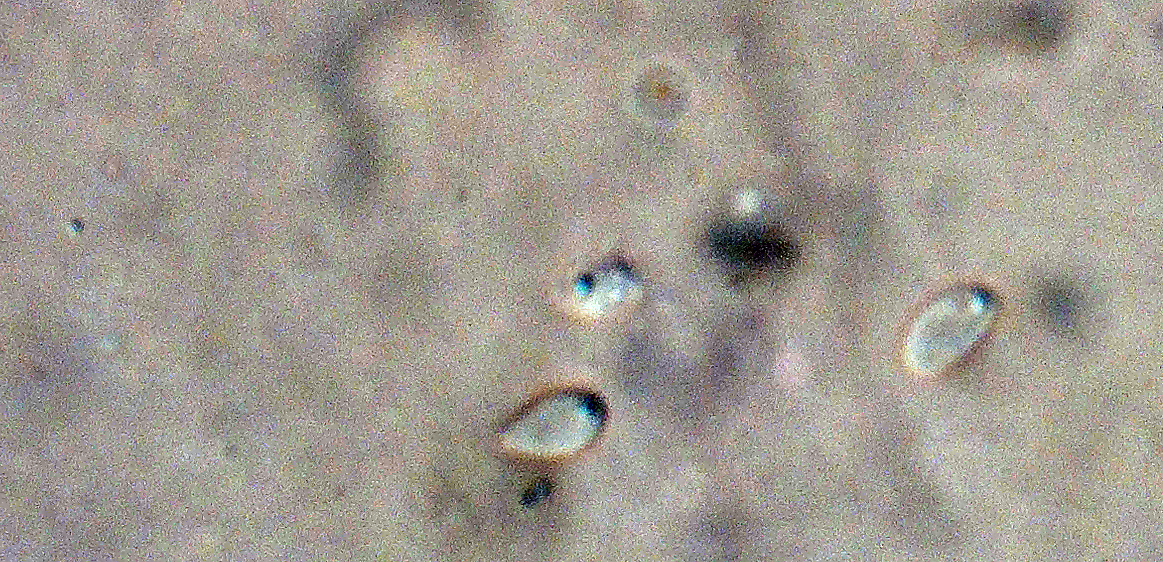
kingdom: Fungi
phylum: Ascomycota
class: Orbiliomycetes
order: Orbiliales
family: Orbiliaceae
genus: Orbilia
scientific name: Orbilia eucalypti
